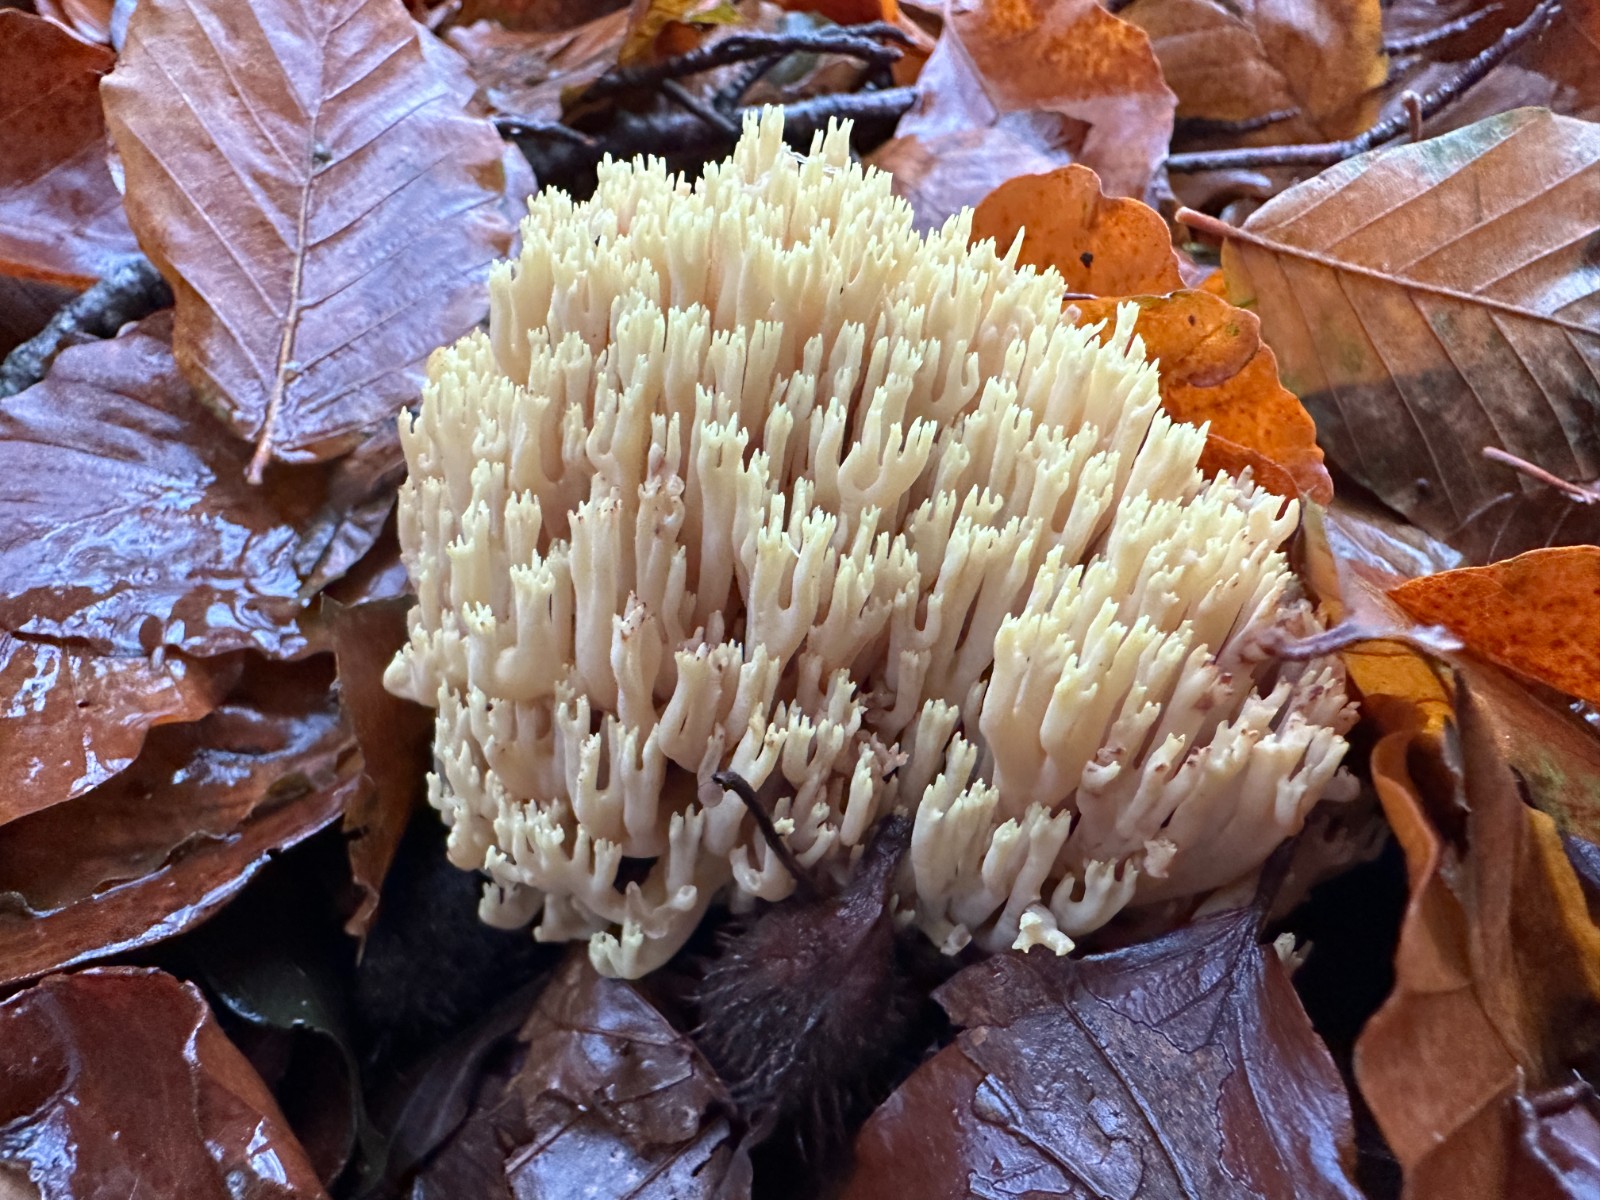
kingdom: Fungi
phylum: Basidiomycota
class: Agaricomycetes
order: Gomphales
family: Gomphaceae
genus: Ramaria
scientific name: Ramaria stricta
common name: rank koralsvamp
